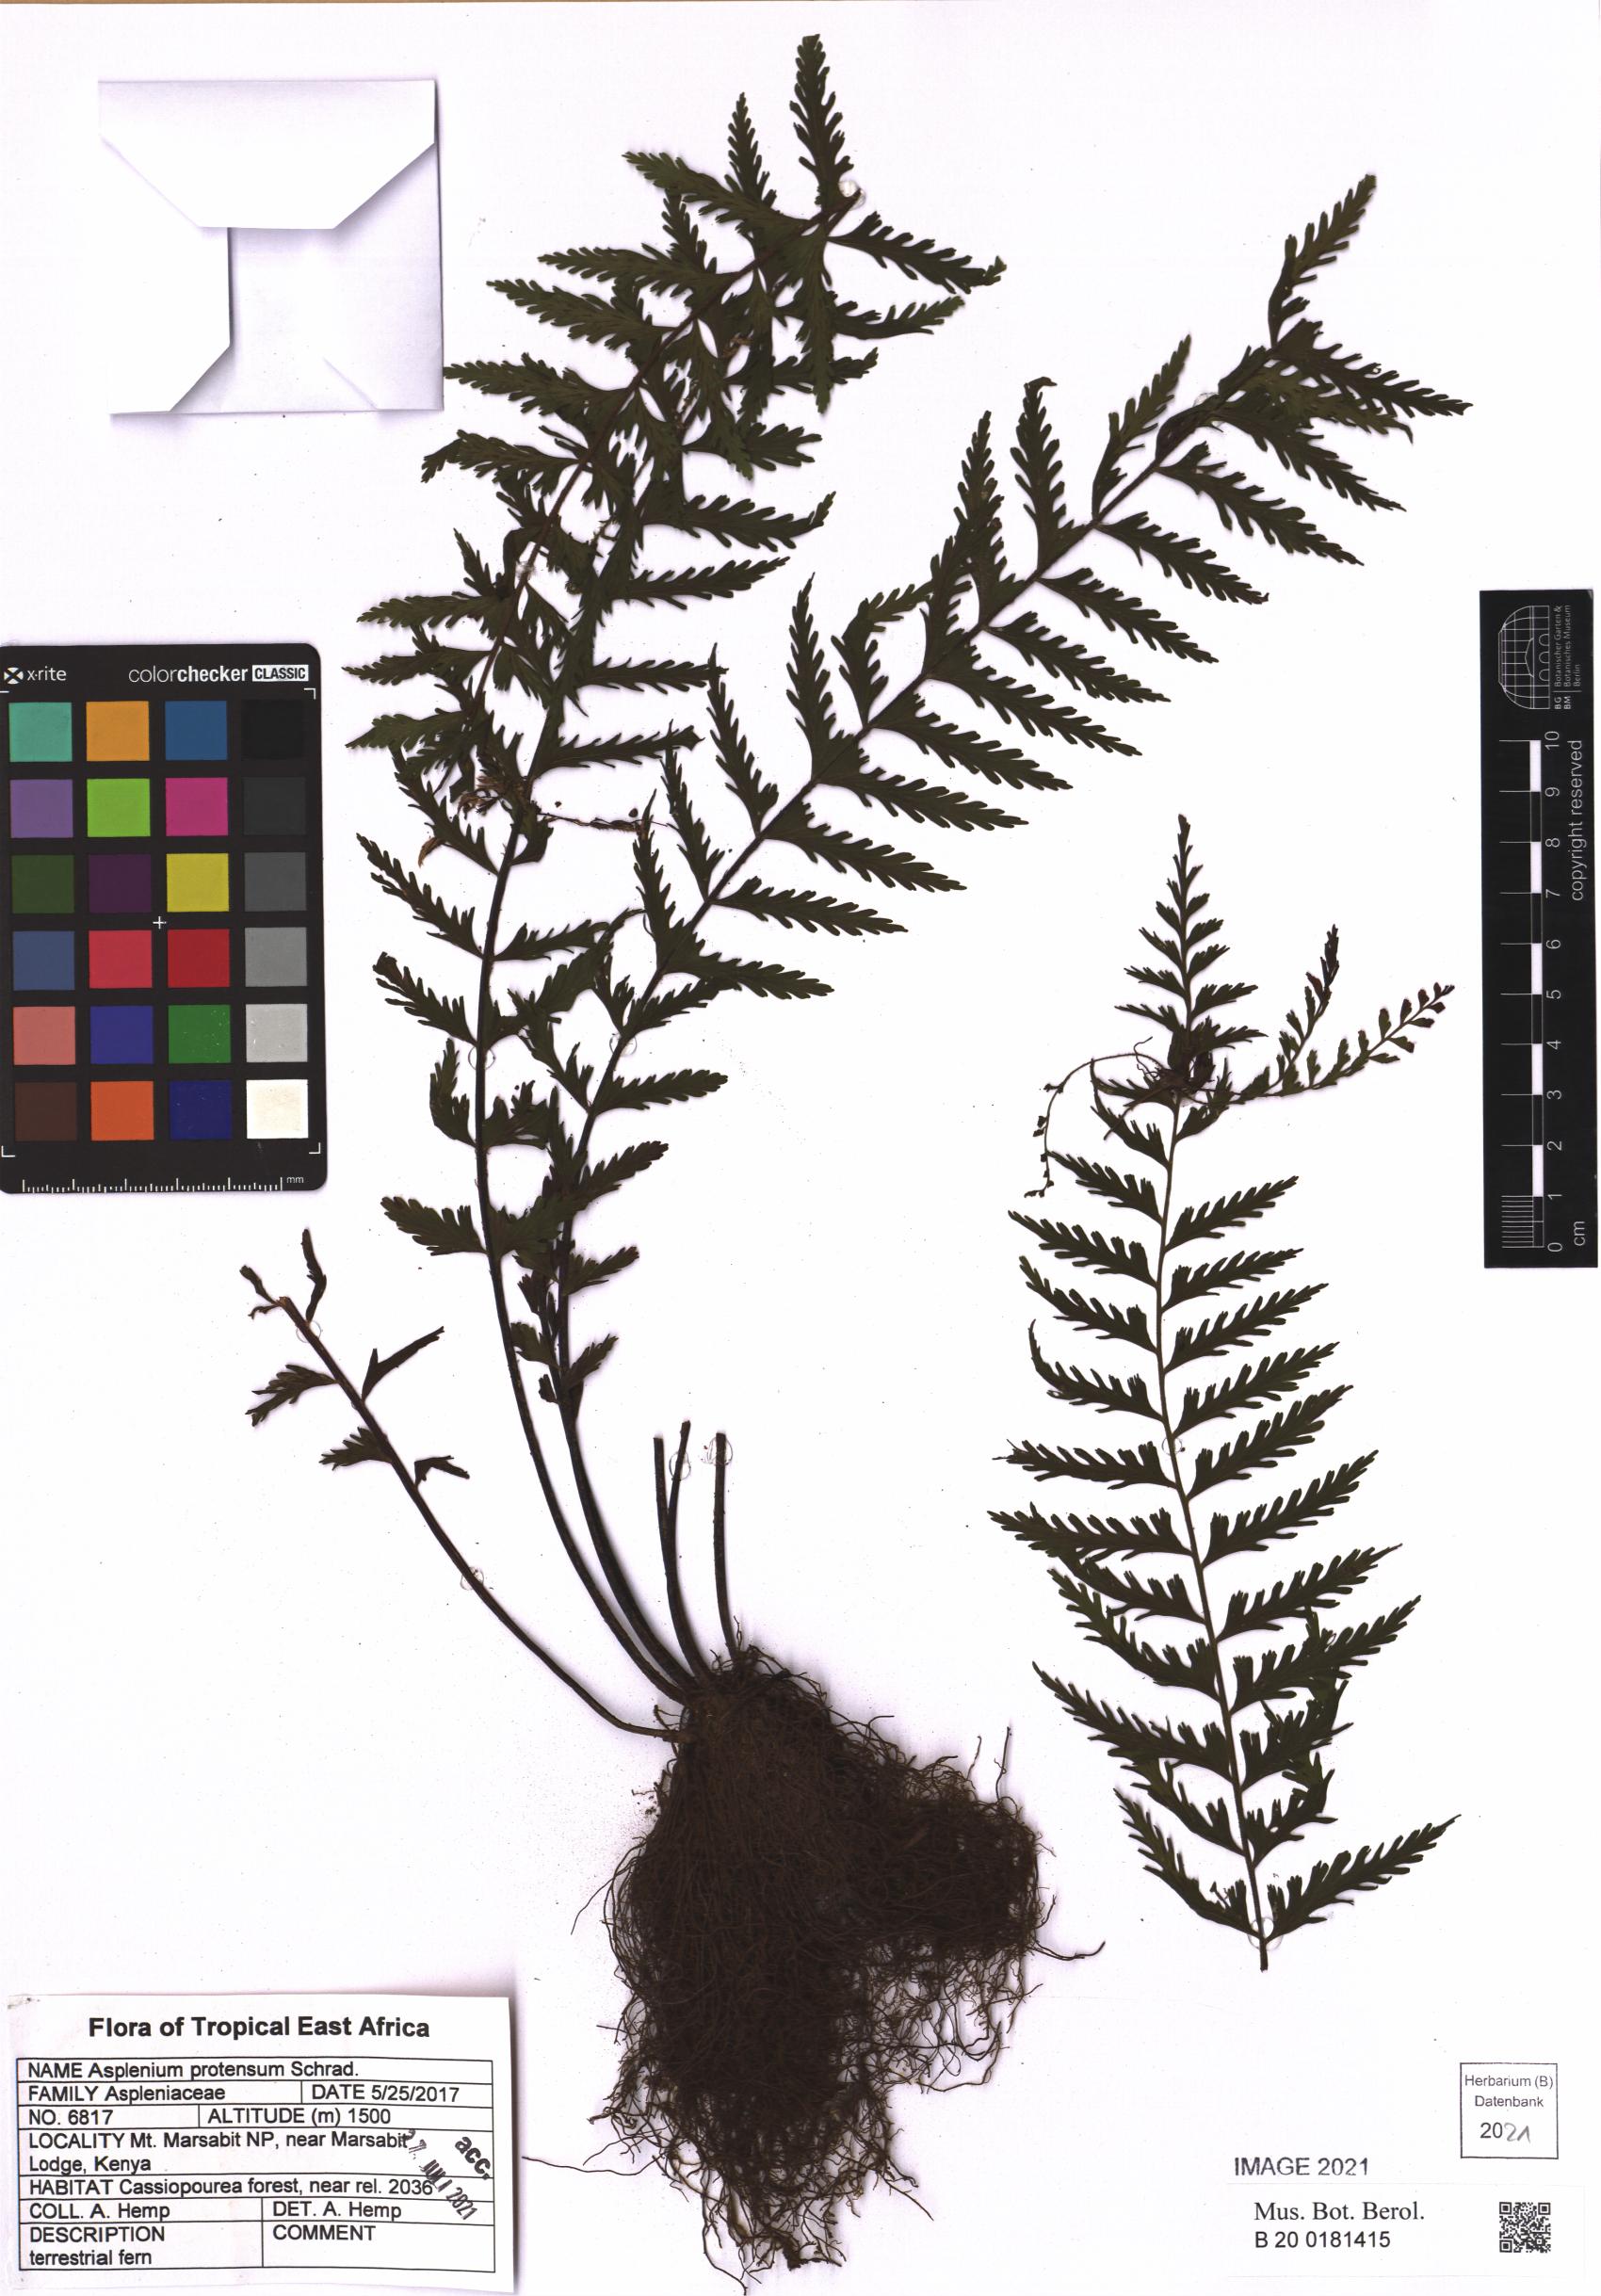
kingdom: Plantae
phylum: Tracheophyta
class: Polypodiopsida
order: Polypodiales
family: Aspleniaceae
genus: Asplenium
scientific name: Asplenium protensum
